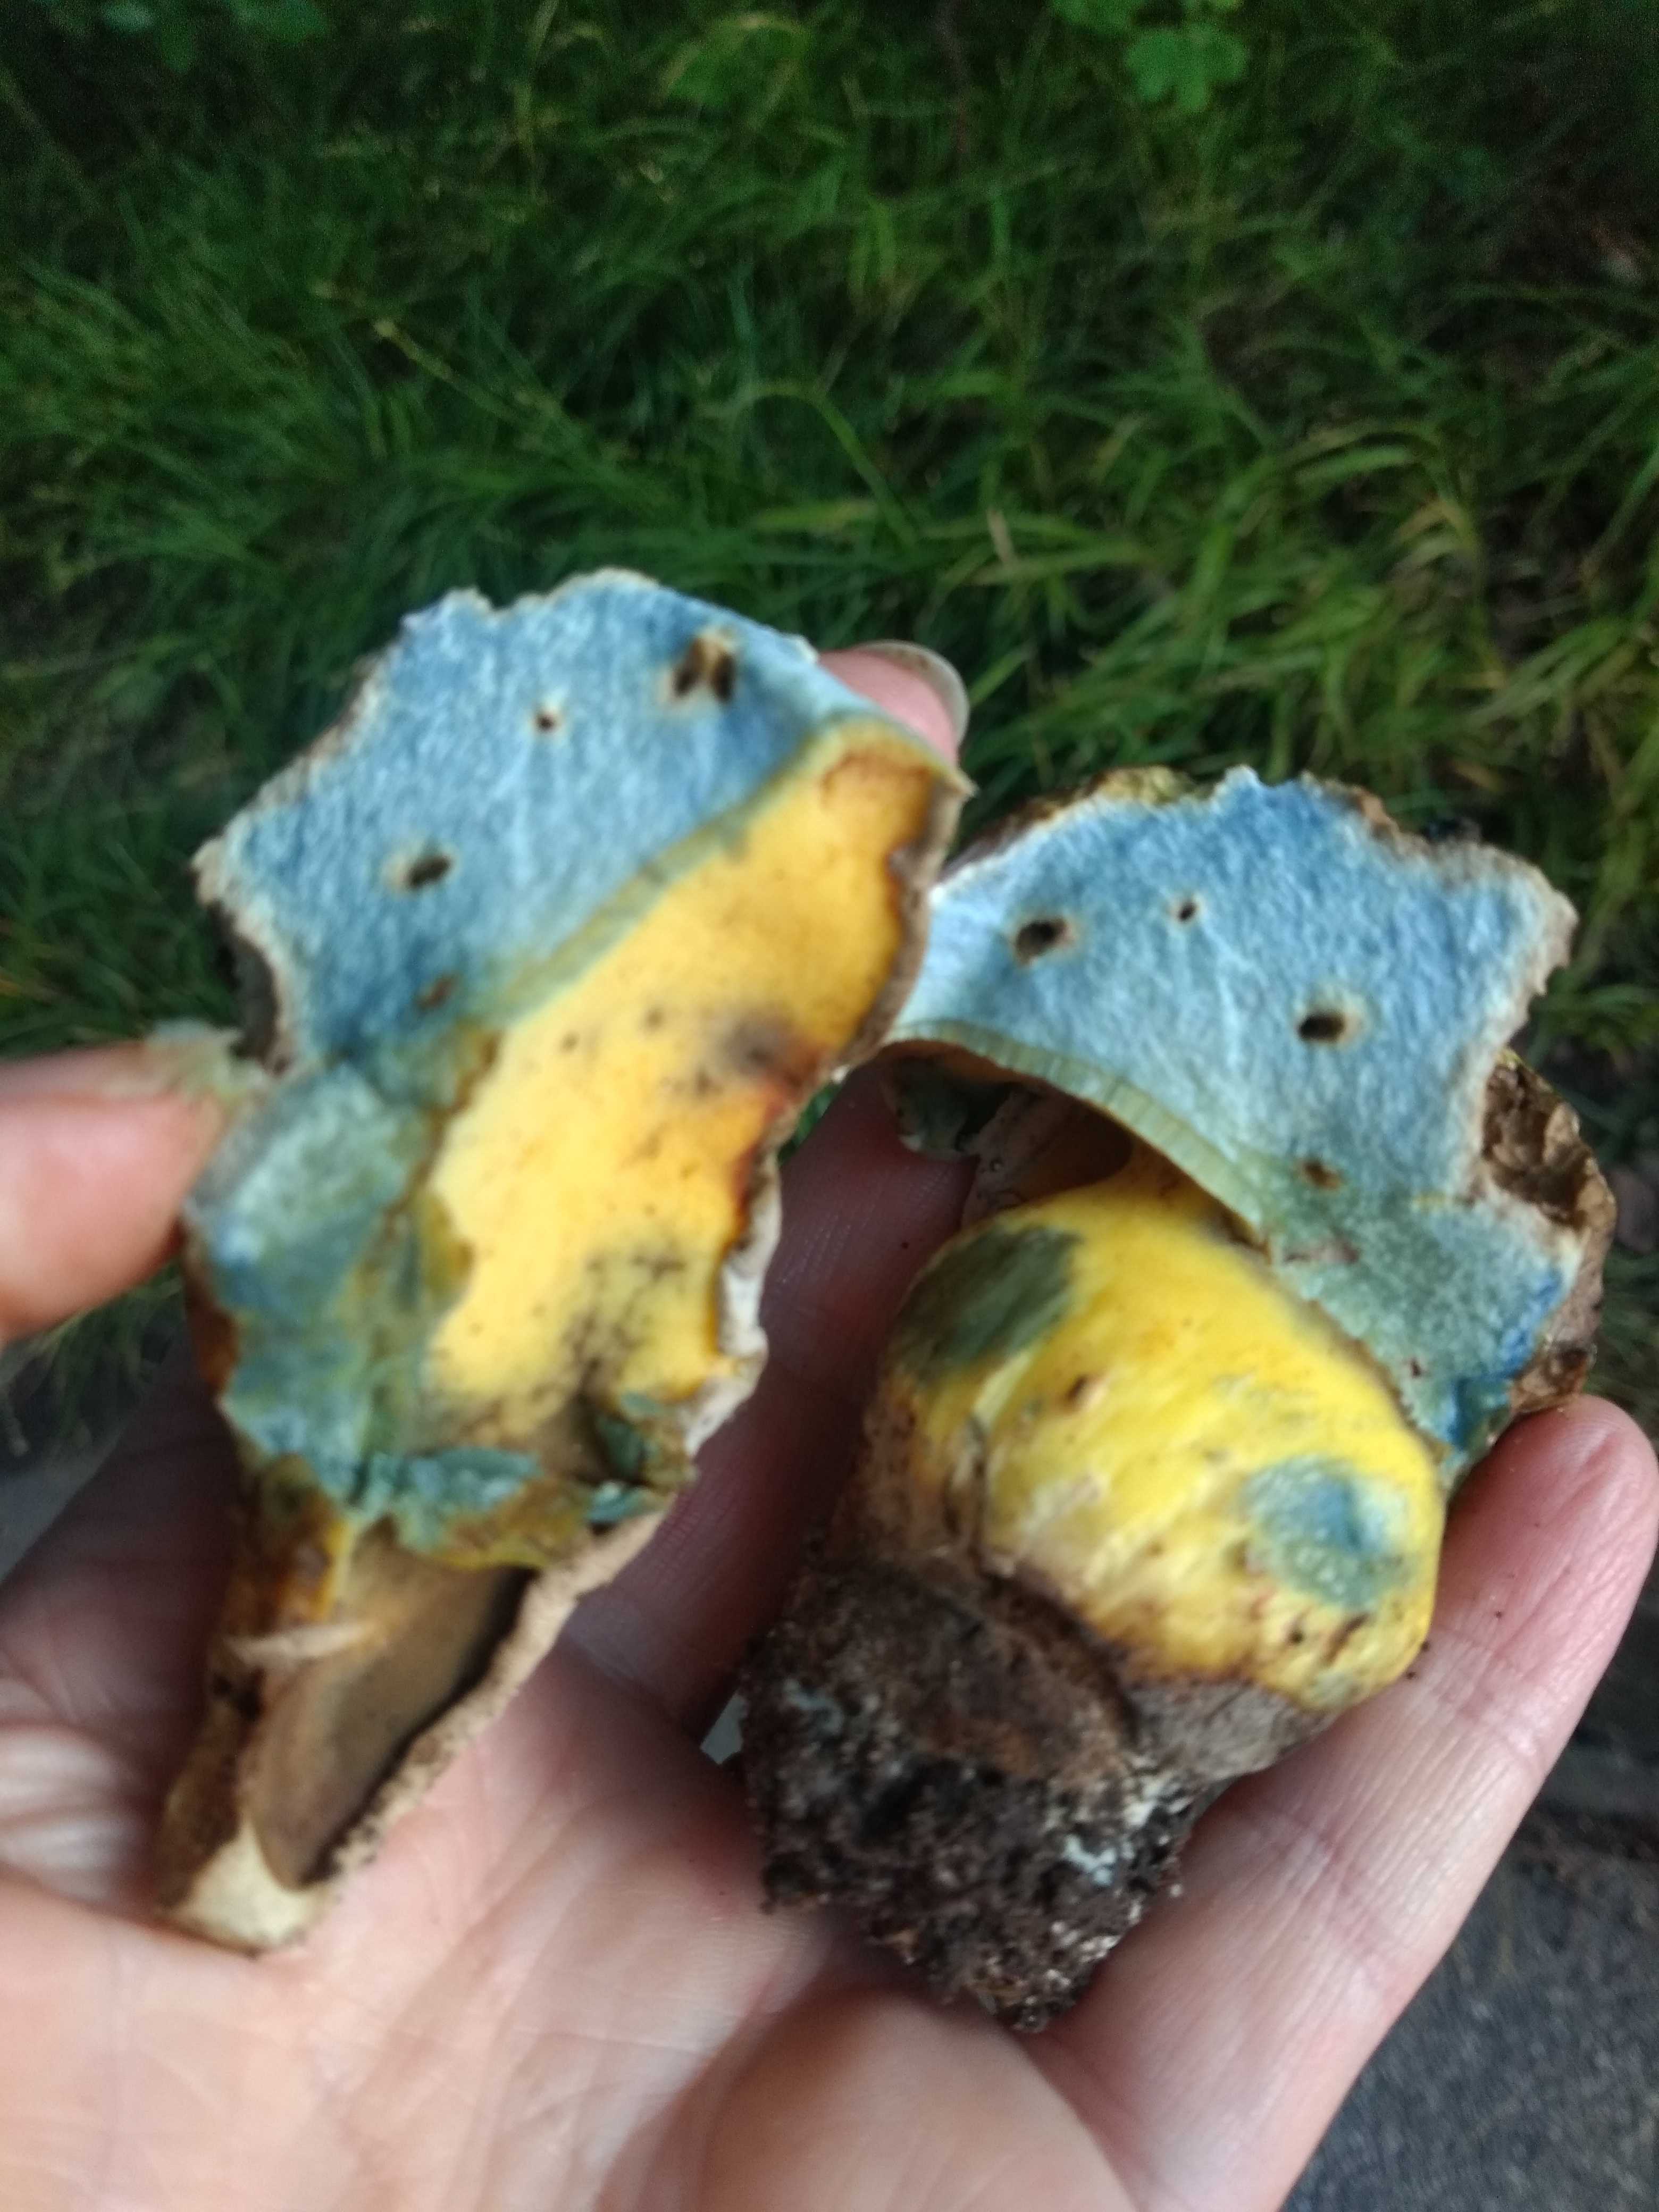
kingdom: Fungi
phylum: Basidiomycota
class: Agaricomycetes
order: Boletales
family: Boletaceae
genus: Caloboletus
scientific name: Caloboletus radicans
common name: rod-rørhat
